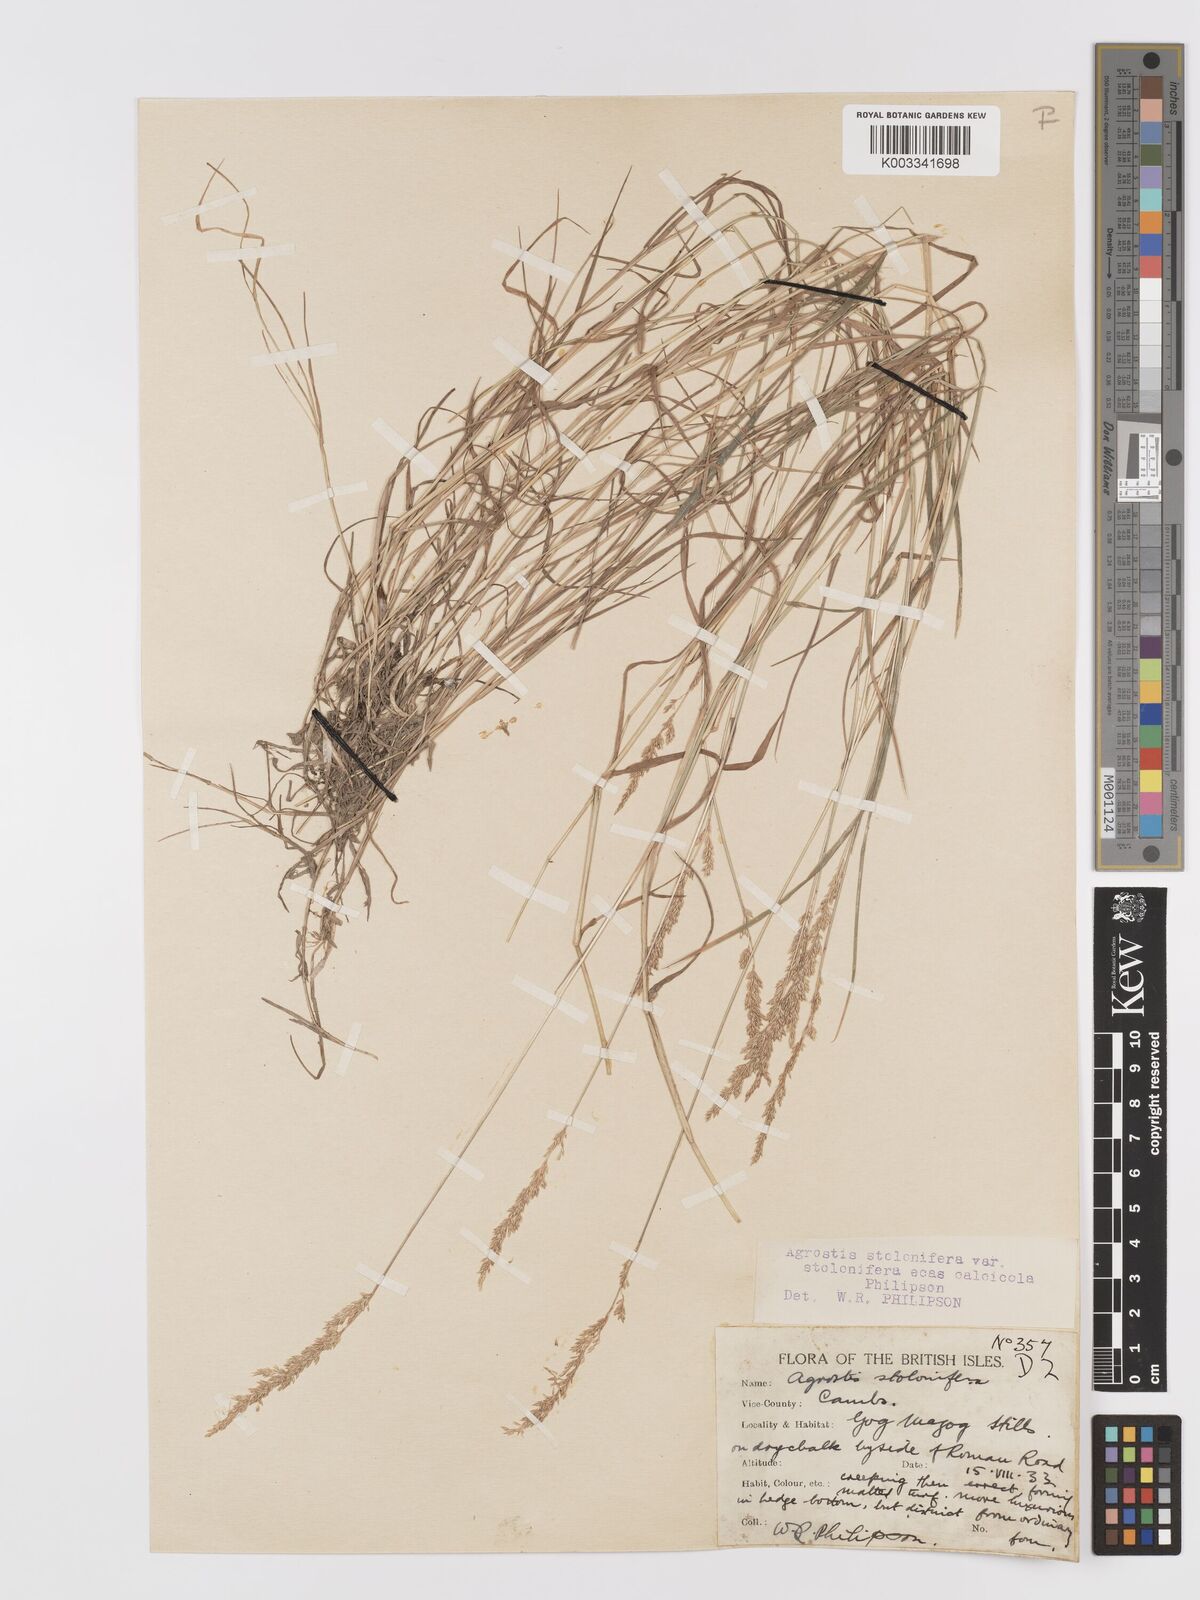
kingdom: Plantae
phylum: Tracheophyta
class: Liliopsida
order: Poales
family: Poaceae
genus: Agrostis
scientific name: Agrostis stolonifera
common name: Creeping bentgrass
